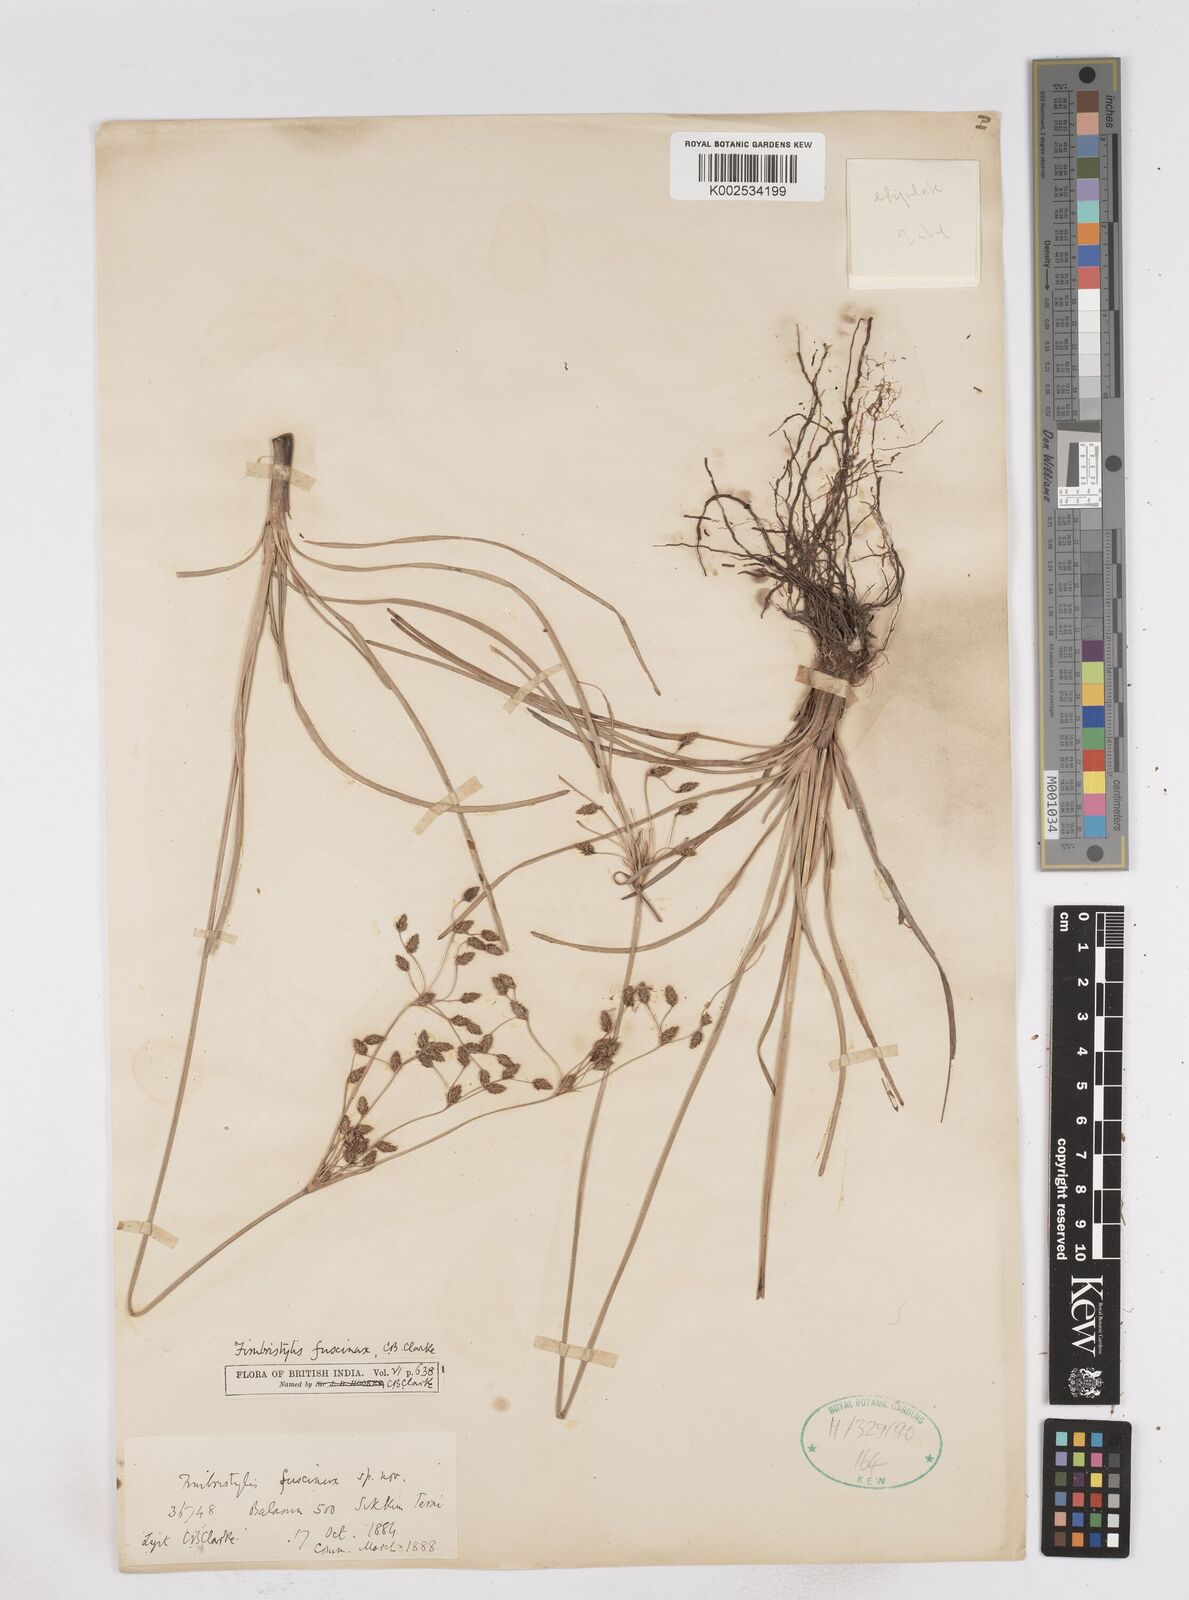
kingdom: Plantae
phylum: Tracheophyta
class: Liliopsida
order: Poales
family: Cyperaceae
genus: Fimbristylis
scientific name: Fimbristylis fuscinux
